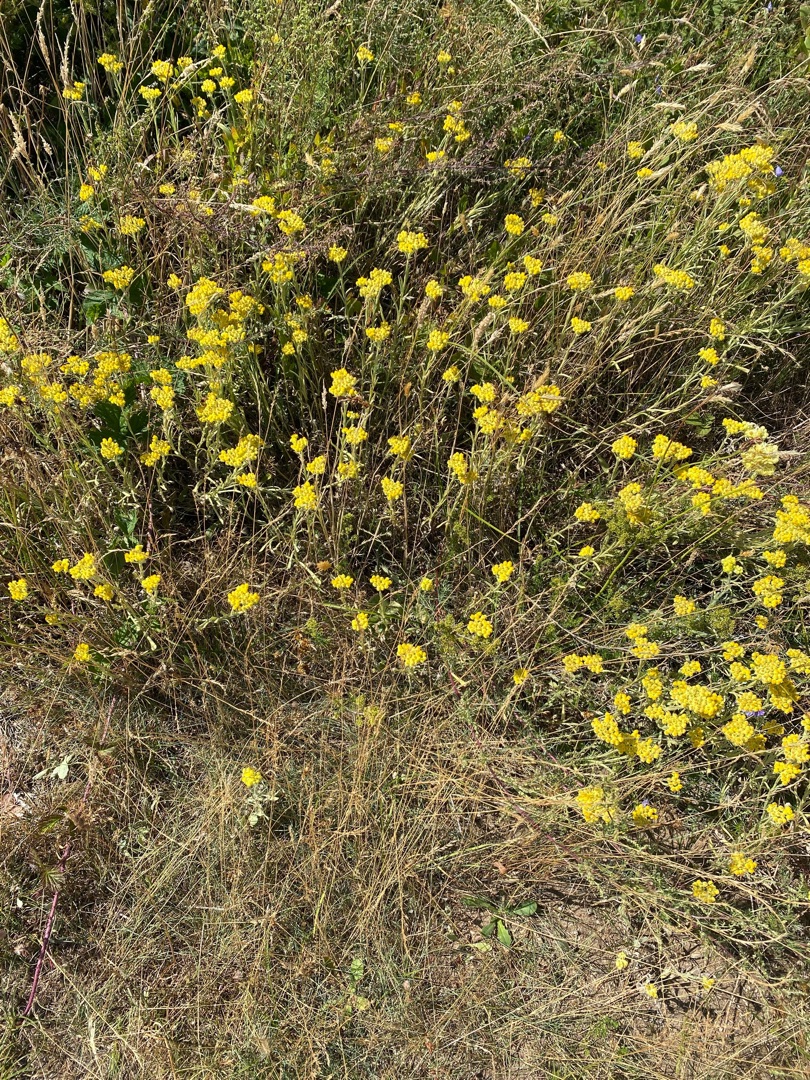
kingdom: Plantae
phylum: Tracheophyta
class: Magnoliopsida
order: Asterales
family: Asteraceae
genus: Helichrysum
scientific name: Helichrysum arenarium
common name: Gul evighedsblomst
